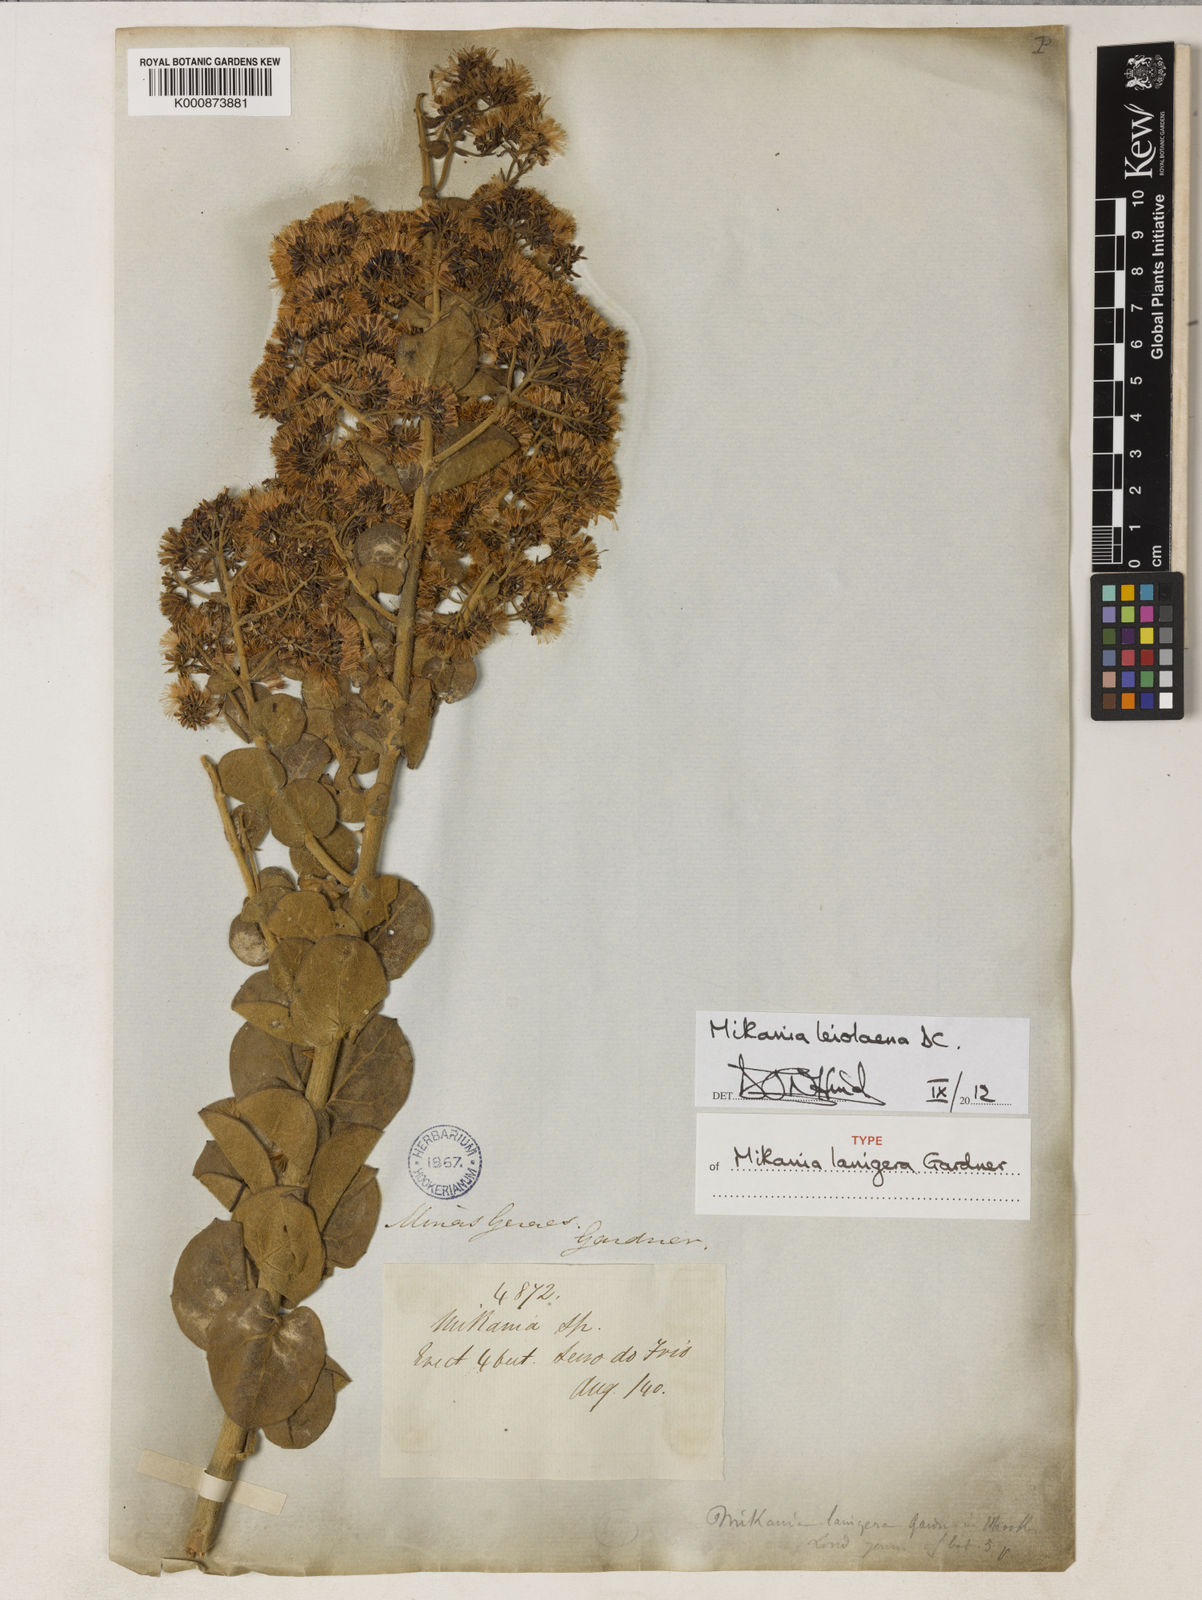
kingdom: Plantae
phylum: Tracheophyta
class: Magnoliopsida
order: Asterales
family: Asteraceae
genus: Mikania
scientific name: Mikania leiolaena
